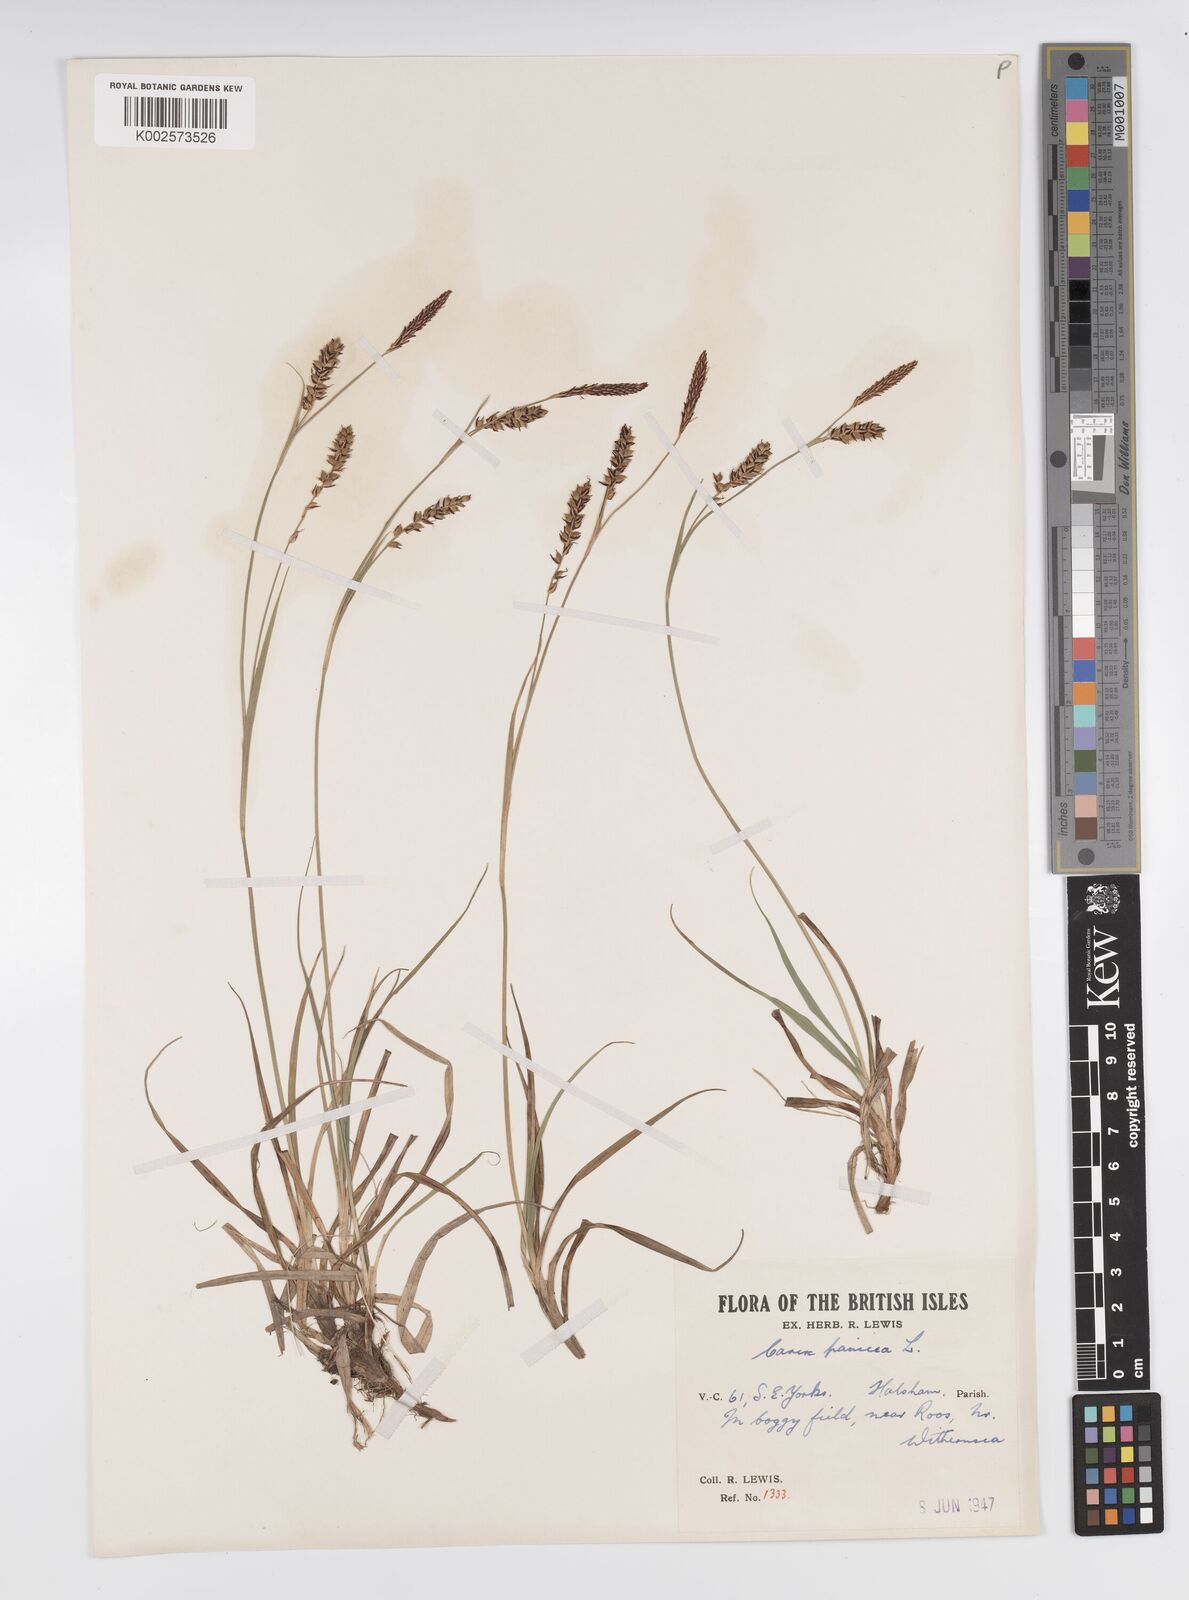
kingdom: Plantae
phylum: Tracheophyta
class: Liliopsida
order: Poales
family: Cyperaceae
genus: Carex
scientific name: Carex panicea
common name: Carnation sedge
